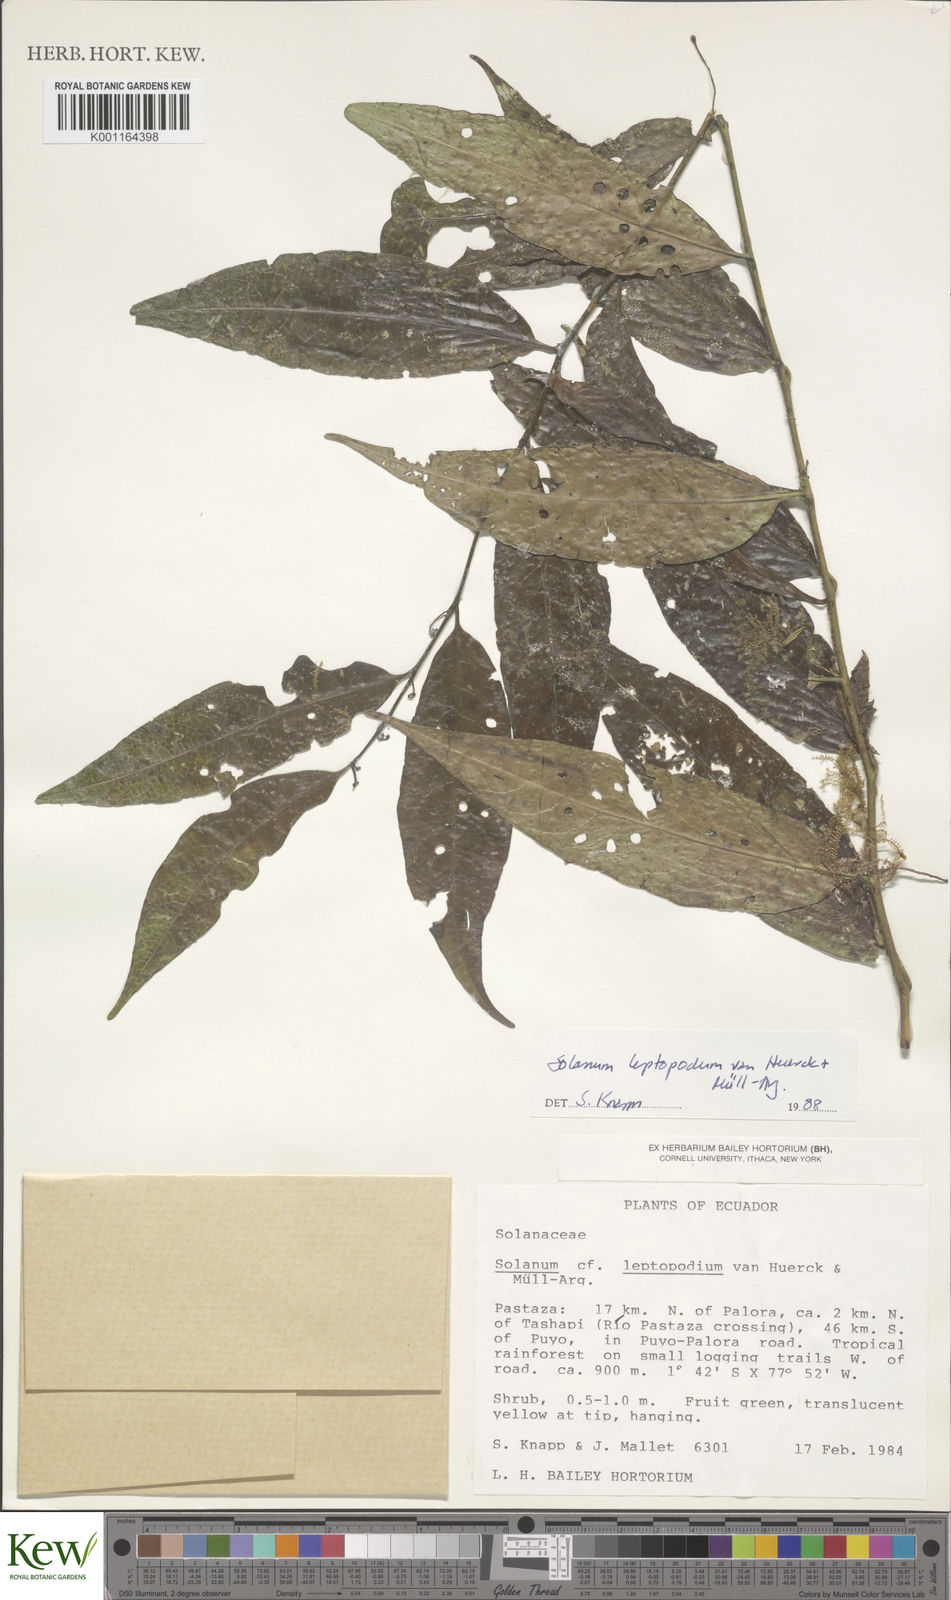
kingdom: Plantae
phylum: Tracheophyta
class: Magnoliopsida
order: Solanales
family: Solanaceae
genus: Solanum
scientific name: Solanum leptopodum
